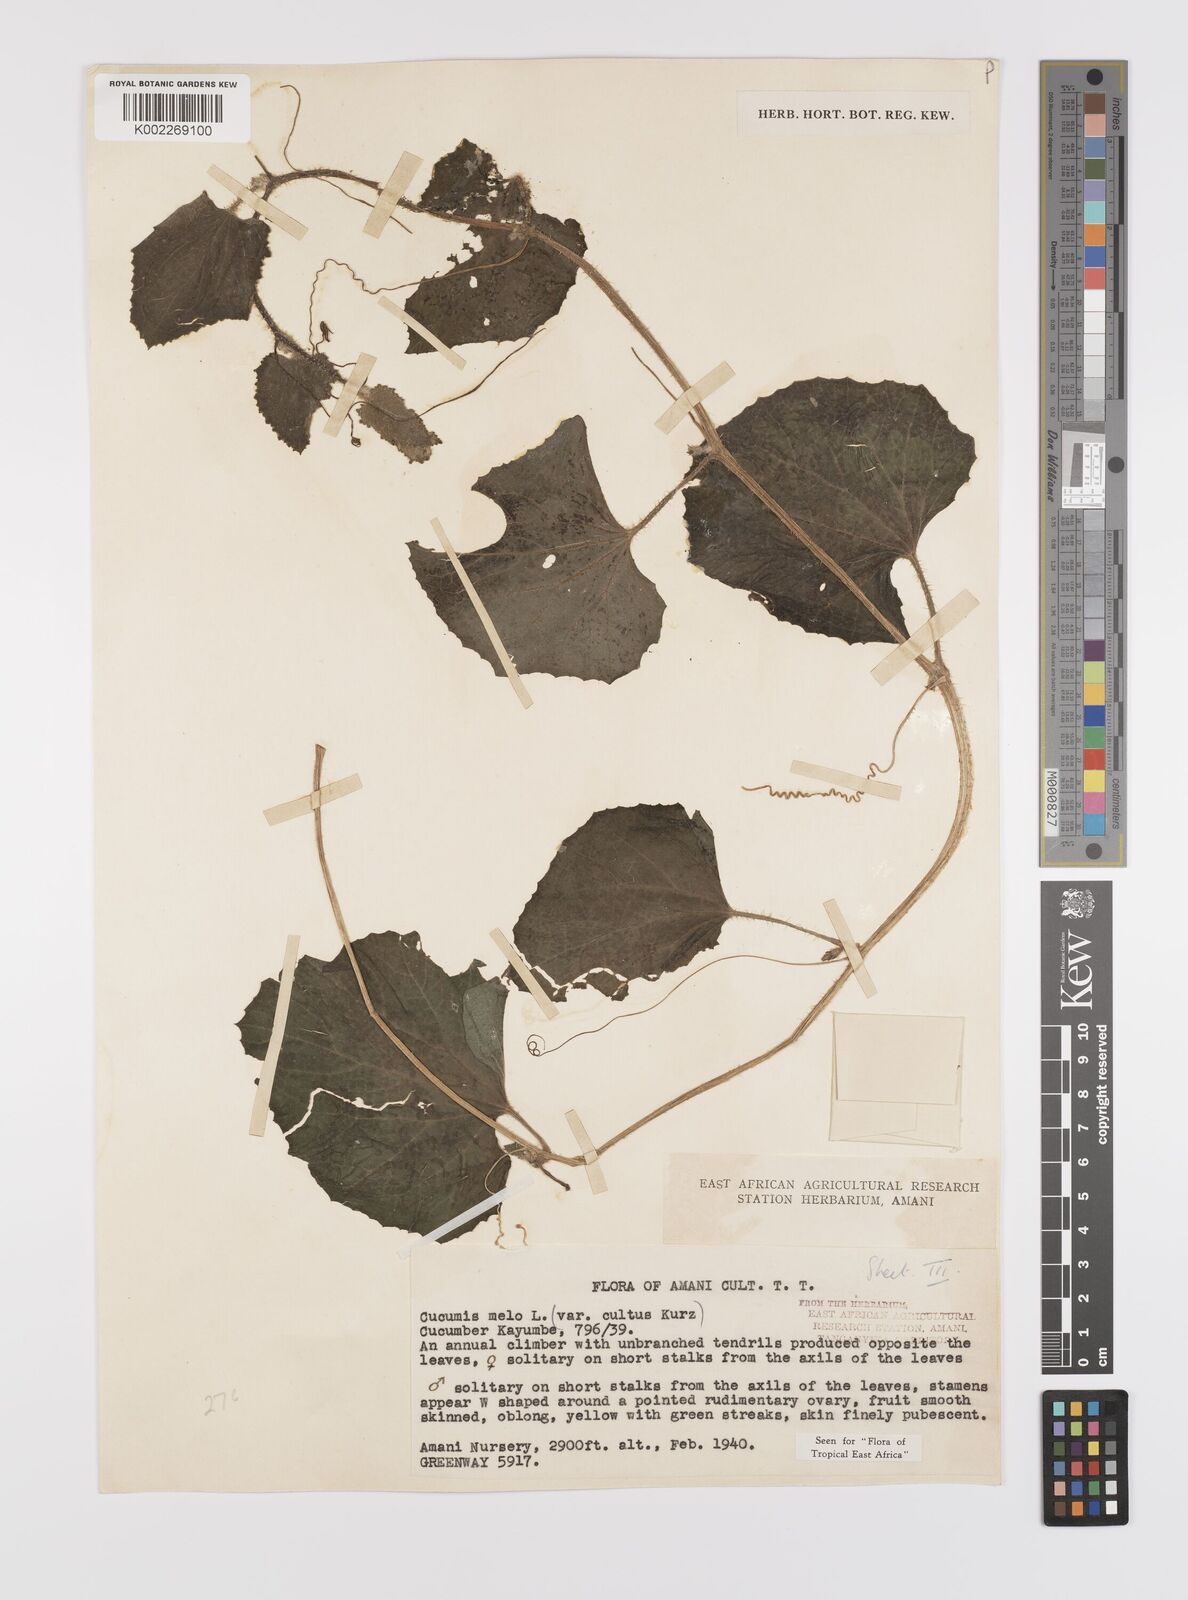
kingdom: Plantae
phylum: Tracheophyta
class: Magnoliopsida
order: Cucurbitales
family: Cucurbitaceae
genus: Cucumis
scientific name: Cucumis melo
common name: Melon
